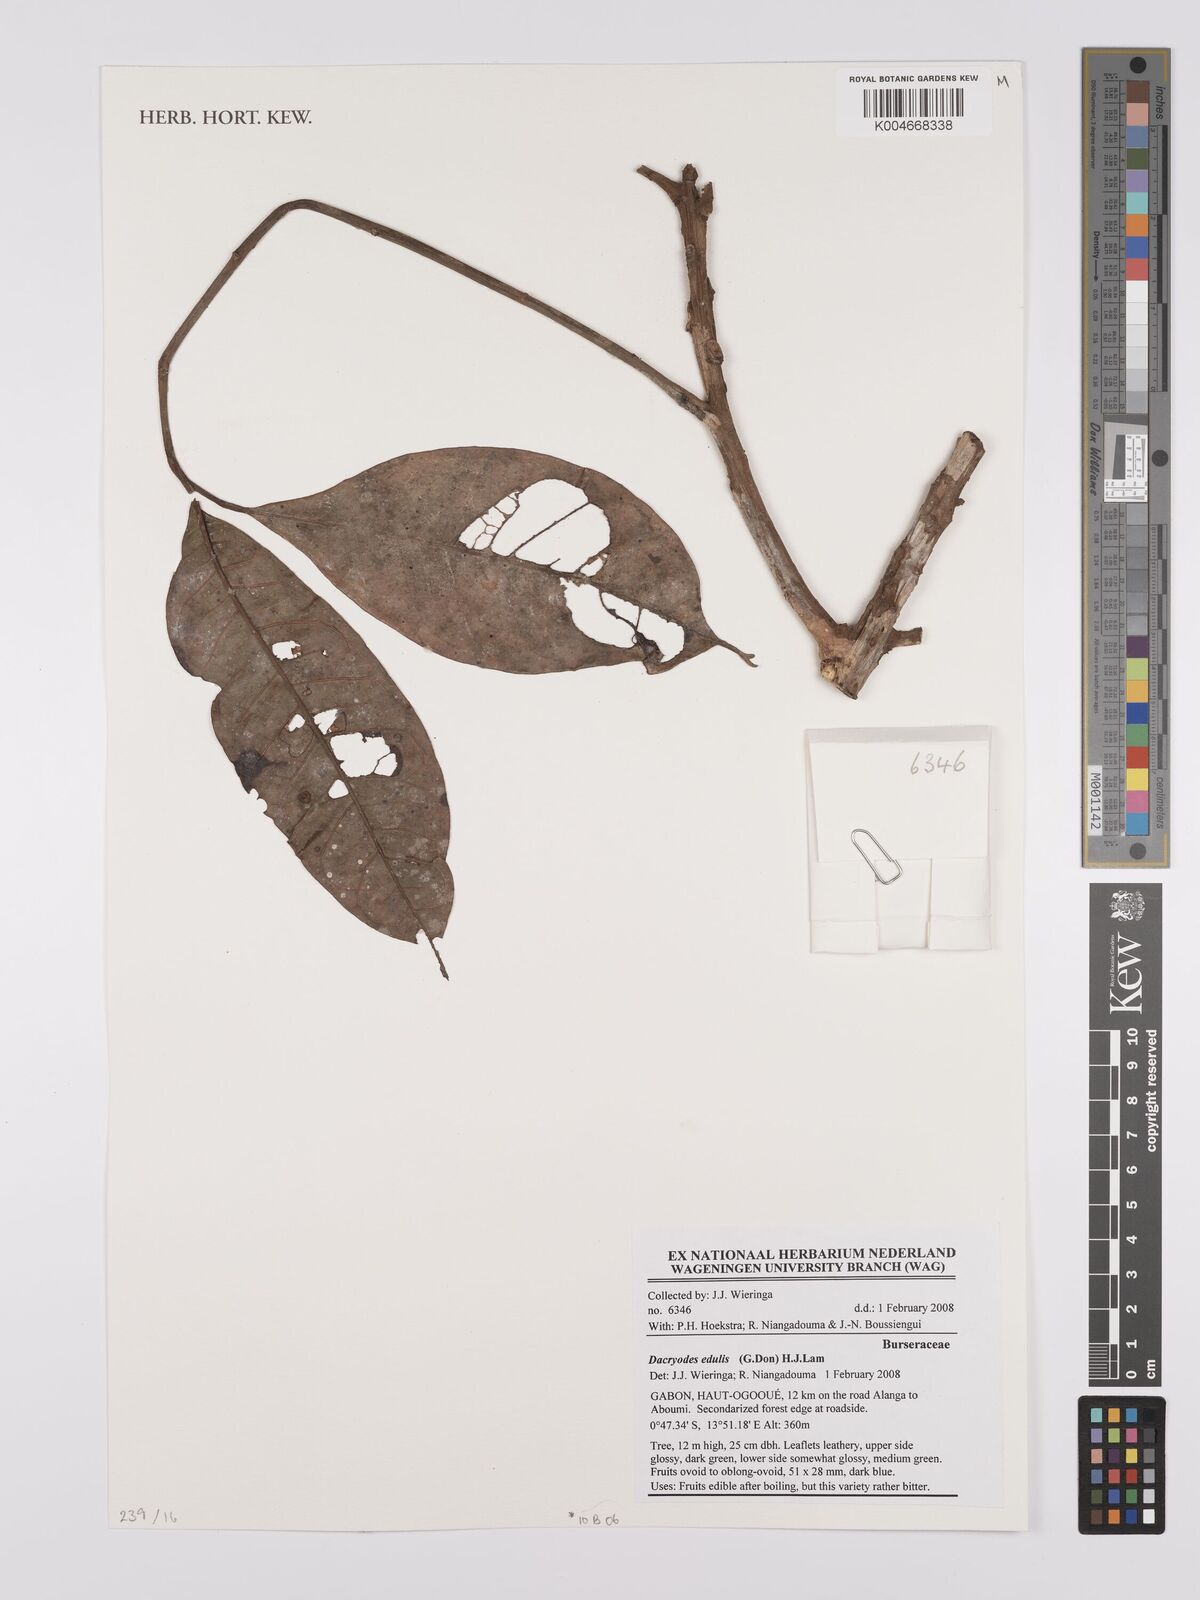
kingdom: Plantae
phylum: Tracheophyta
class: Magnoliopsida
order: Sapindales
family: Burseraceae
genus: Pachylobus
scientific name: Pachylobus edulis
